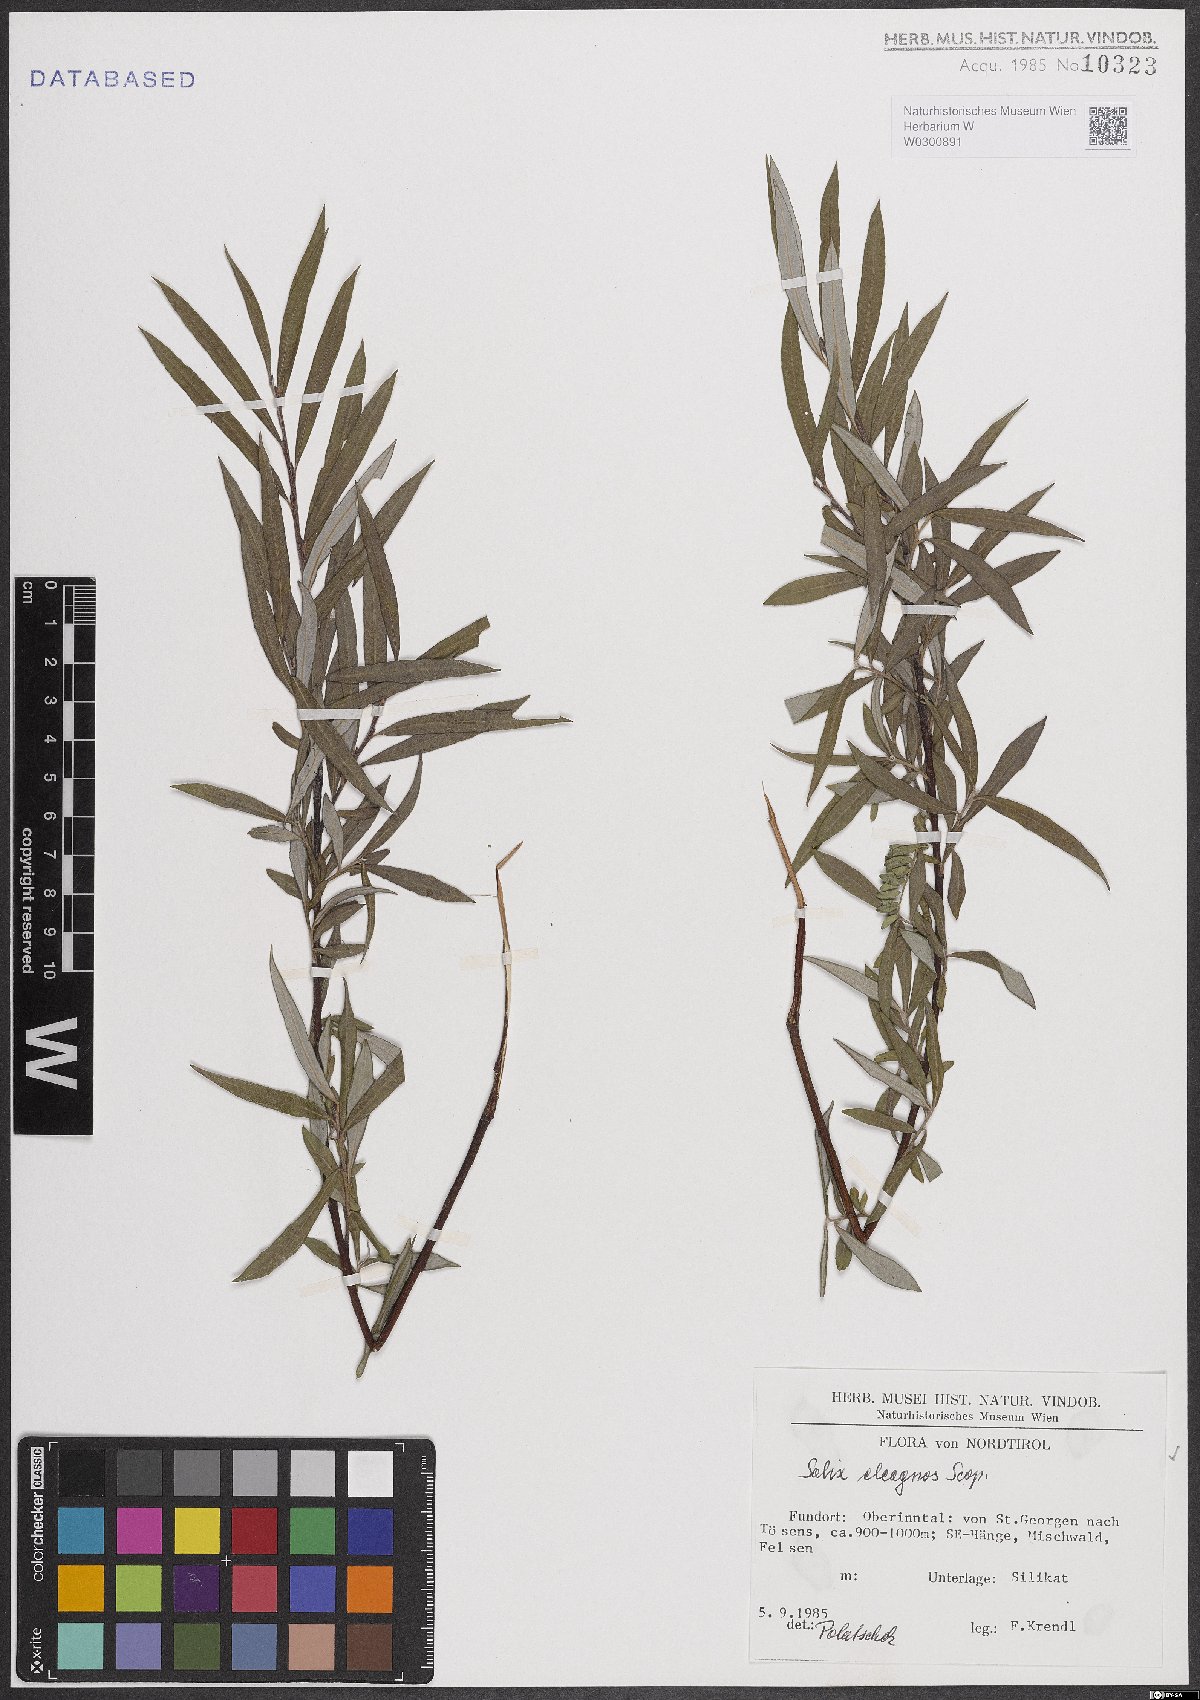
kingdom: Plantae
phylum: Tracheophyta
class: Magnoliopsida
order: Malpighiales
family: Salicaceae
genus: Salix
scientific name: Salix eleagnos
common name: Elaeagnus willow
